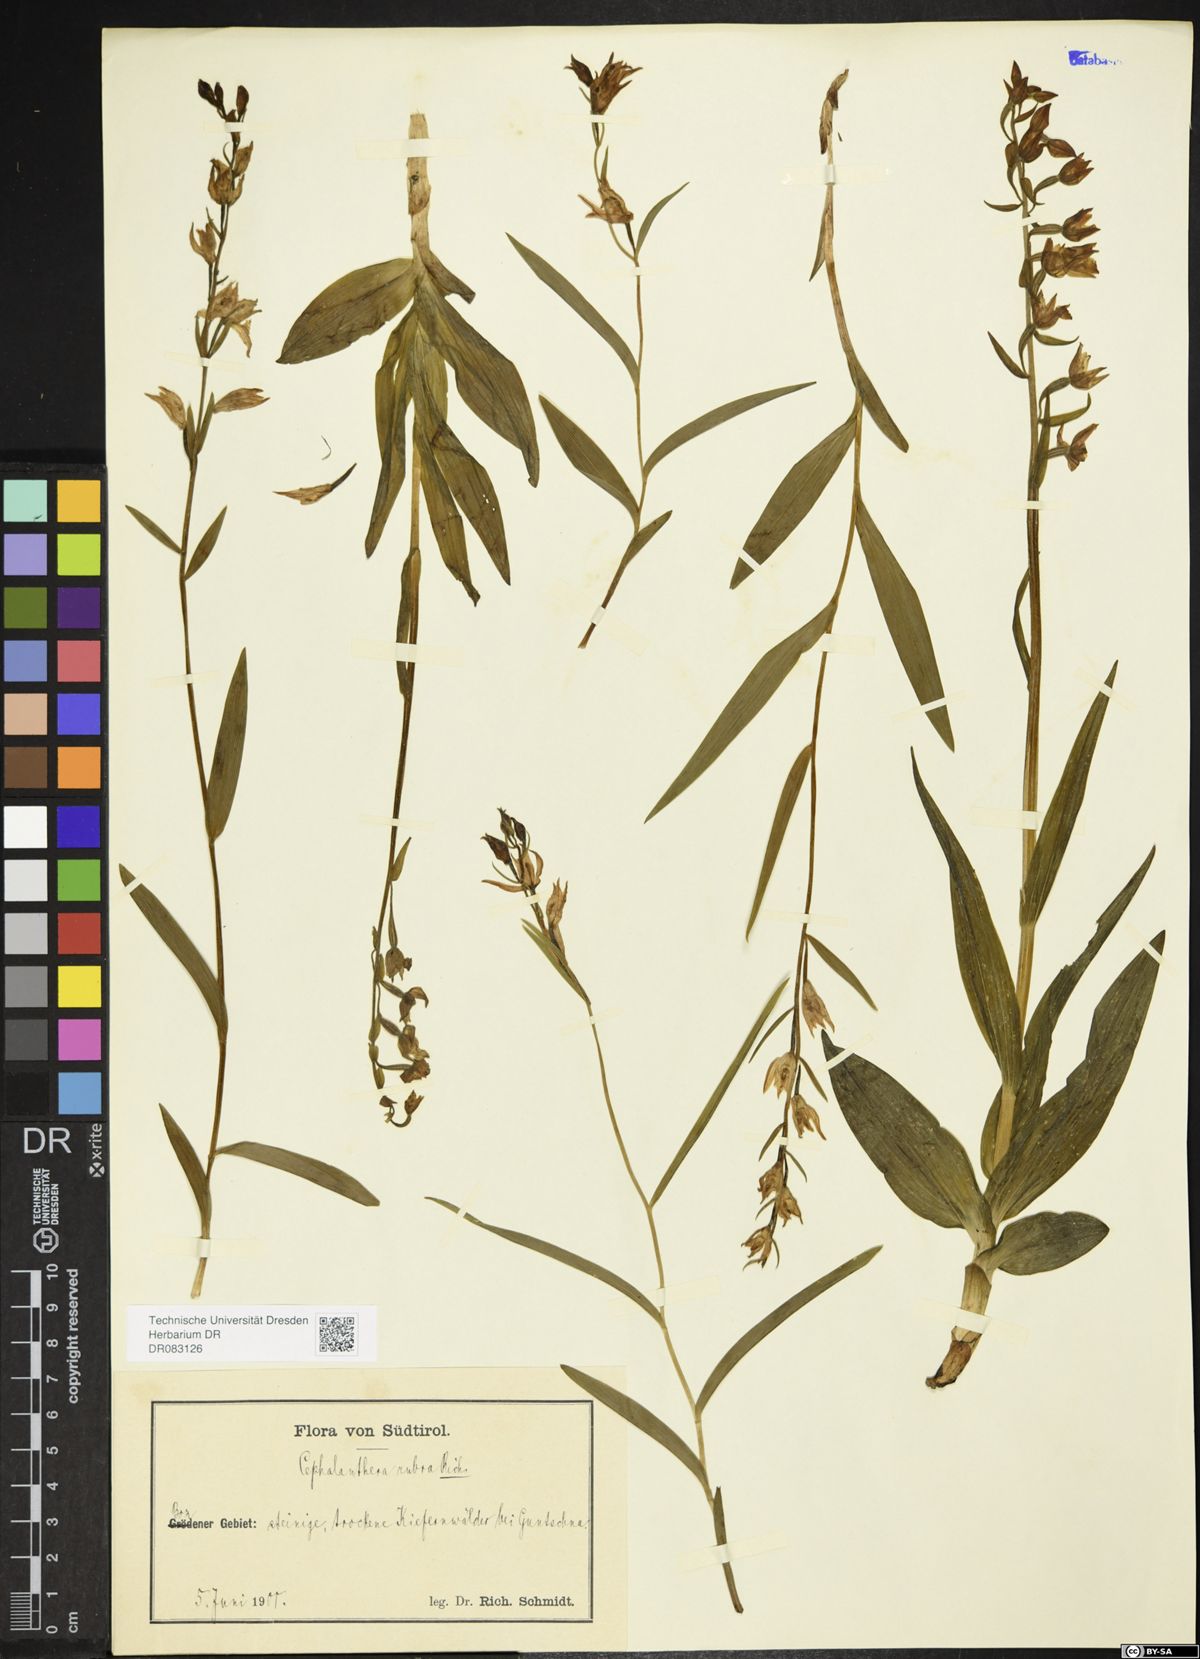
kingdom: Plantae
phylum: Tracheophyta
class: Liliopsida
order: Asparagales
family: Orchidaceae
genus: Cephalanthera
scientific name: Cephalanthera rubra
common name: Red helleborine
